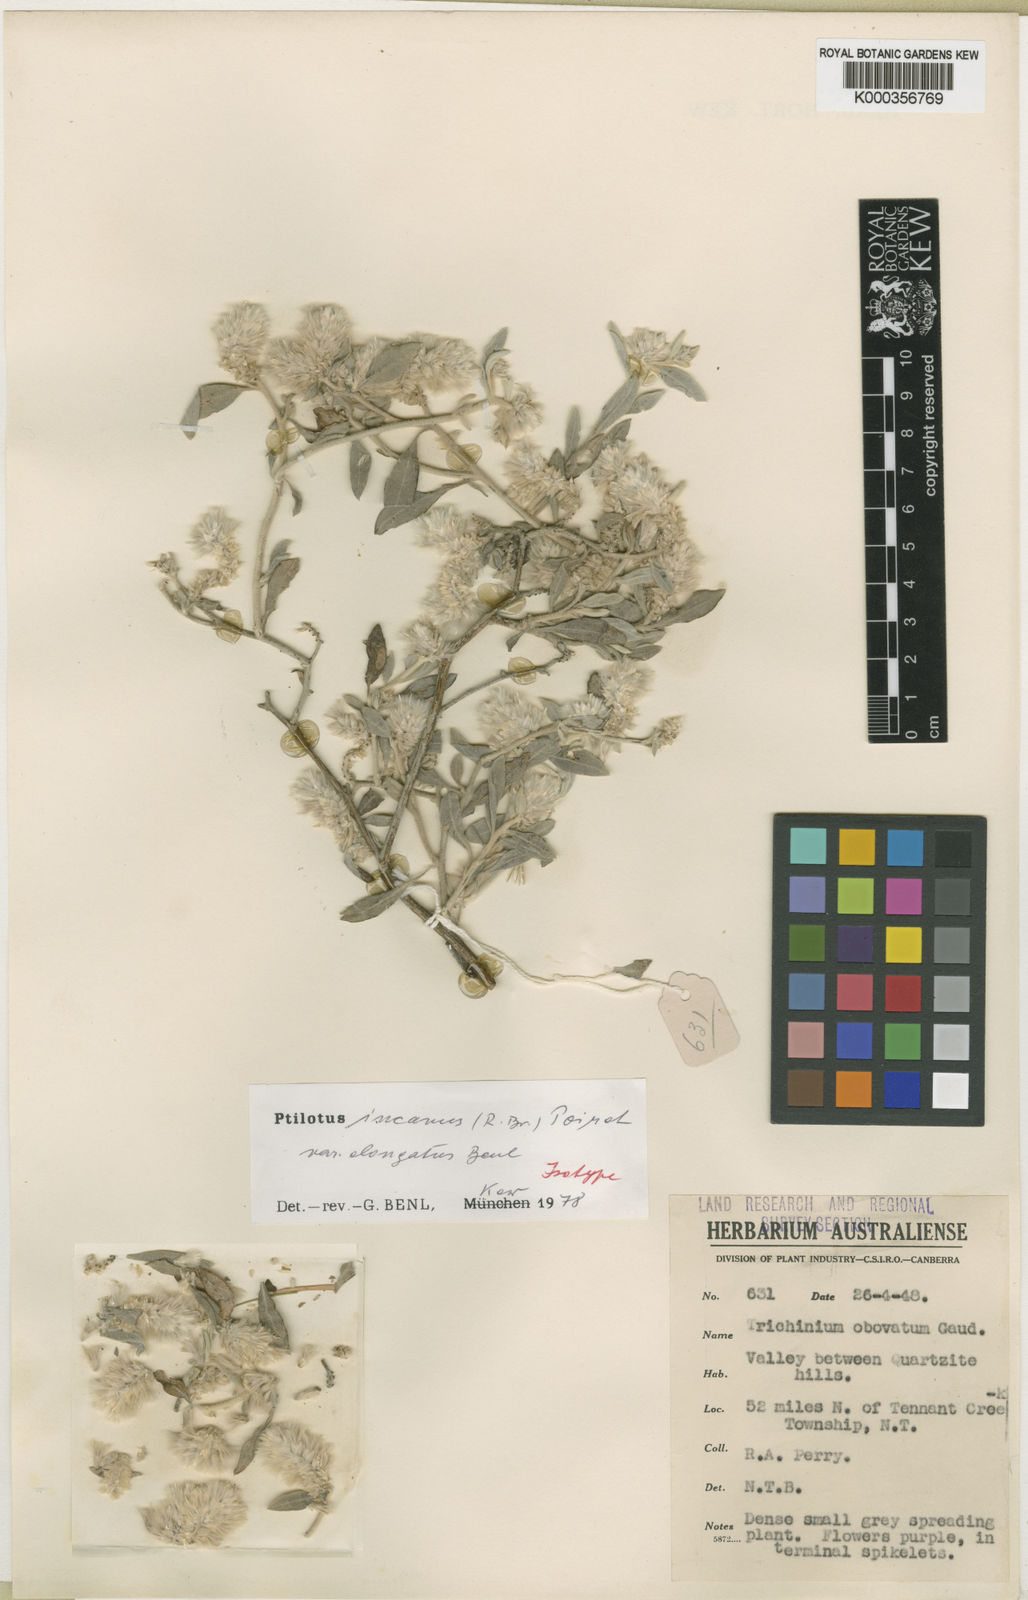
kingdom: Plantae
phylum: Tracheophyta
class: Magnoliopsida
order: Caryophyllales
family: Amaranthaceae
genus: Ptilotus
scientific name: Ptilotus incanus
